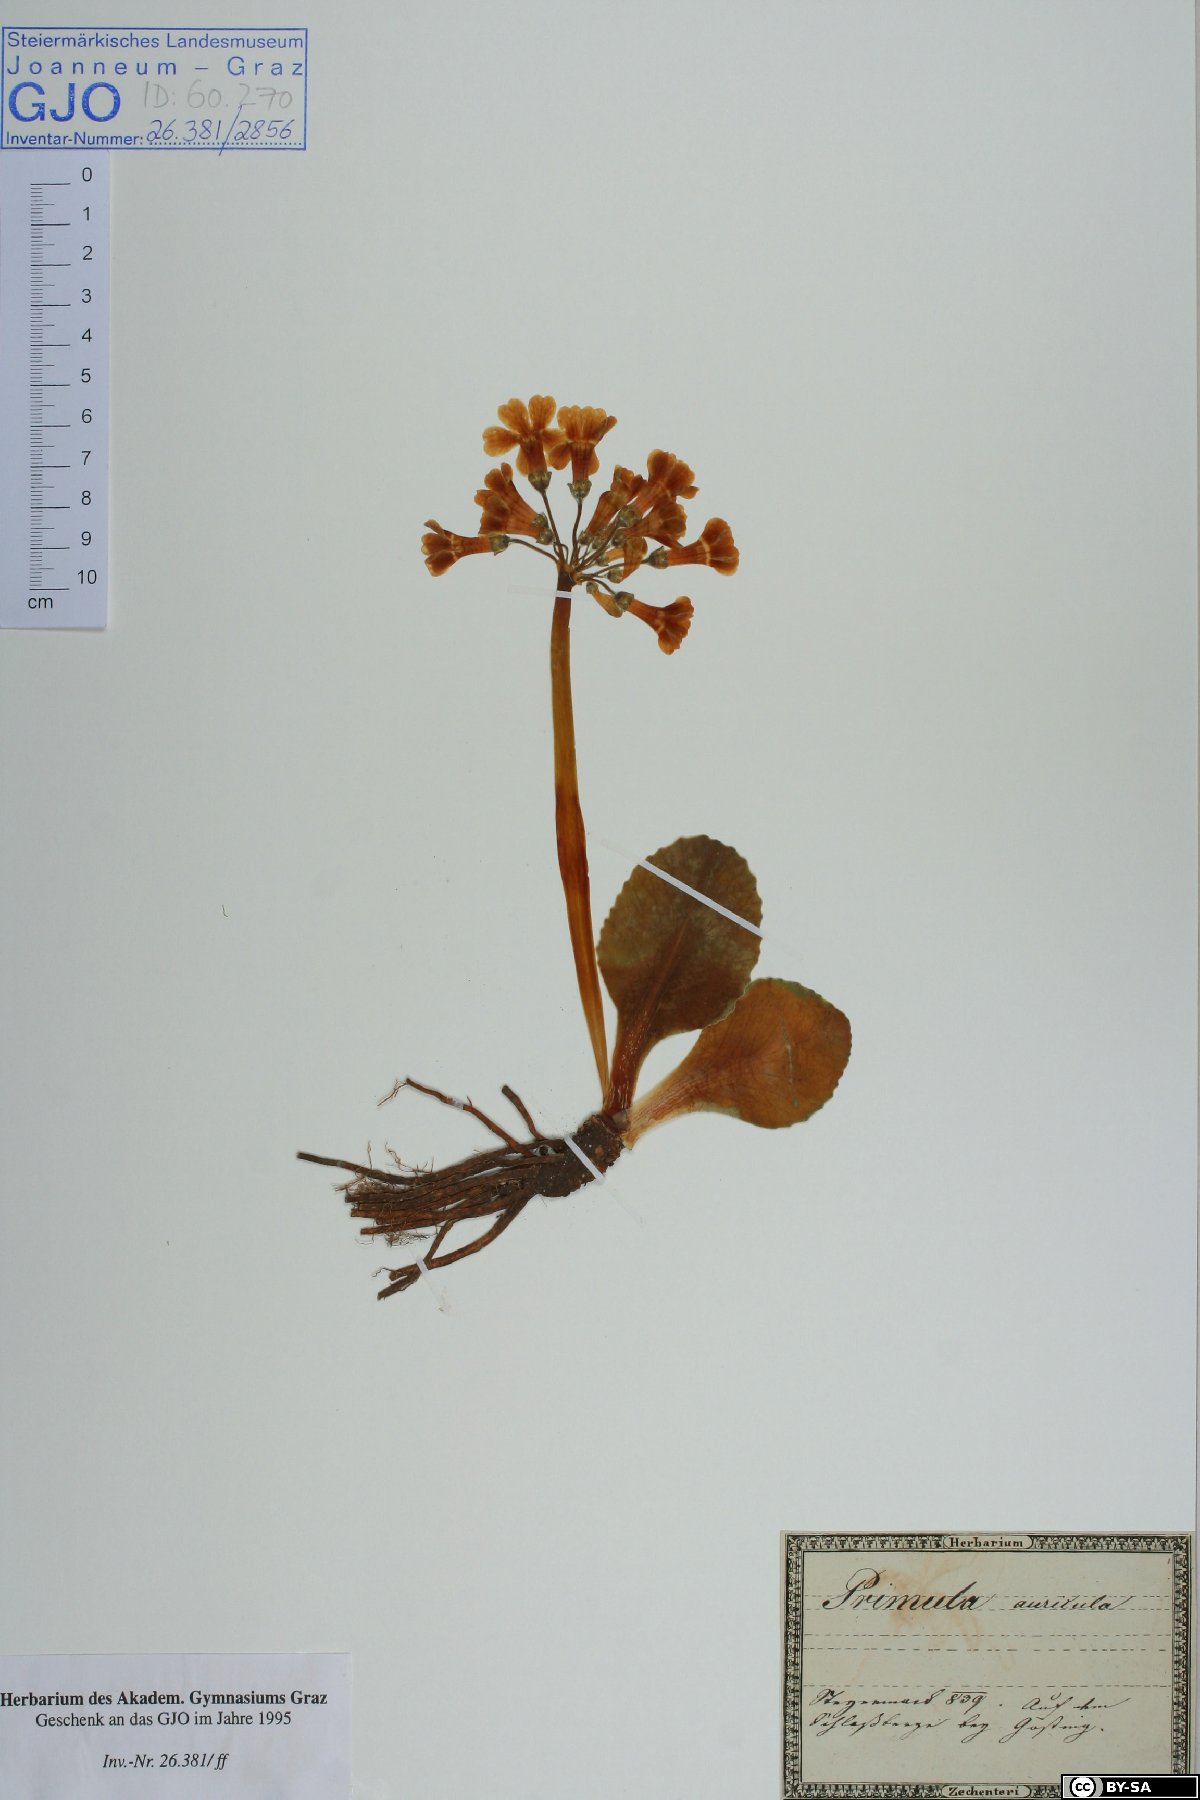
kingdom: Plantae
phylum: Tracheophyta
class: Magnoliopsida
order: Ericales
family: Primulaceae
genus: Primula
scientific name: Primula auricula
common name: Auricula
